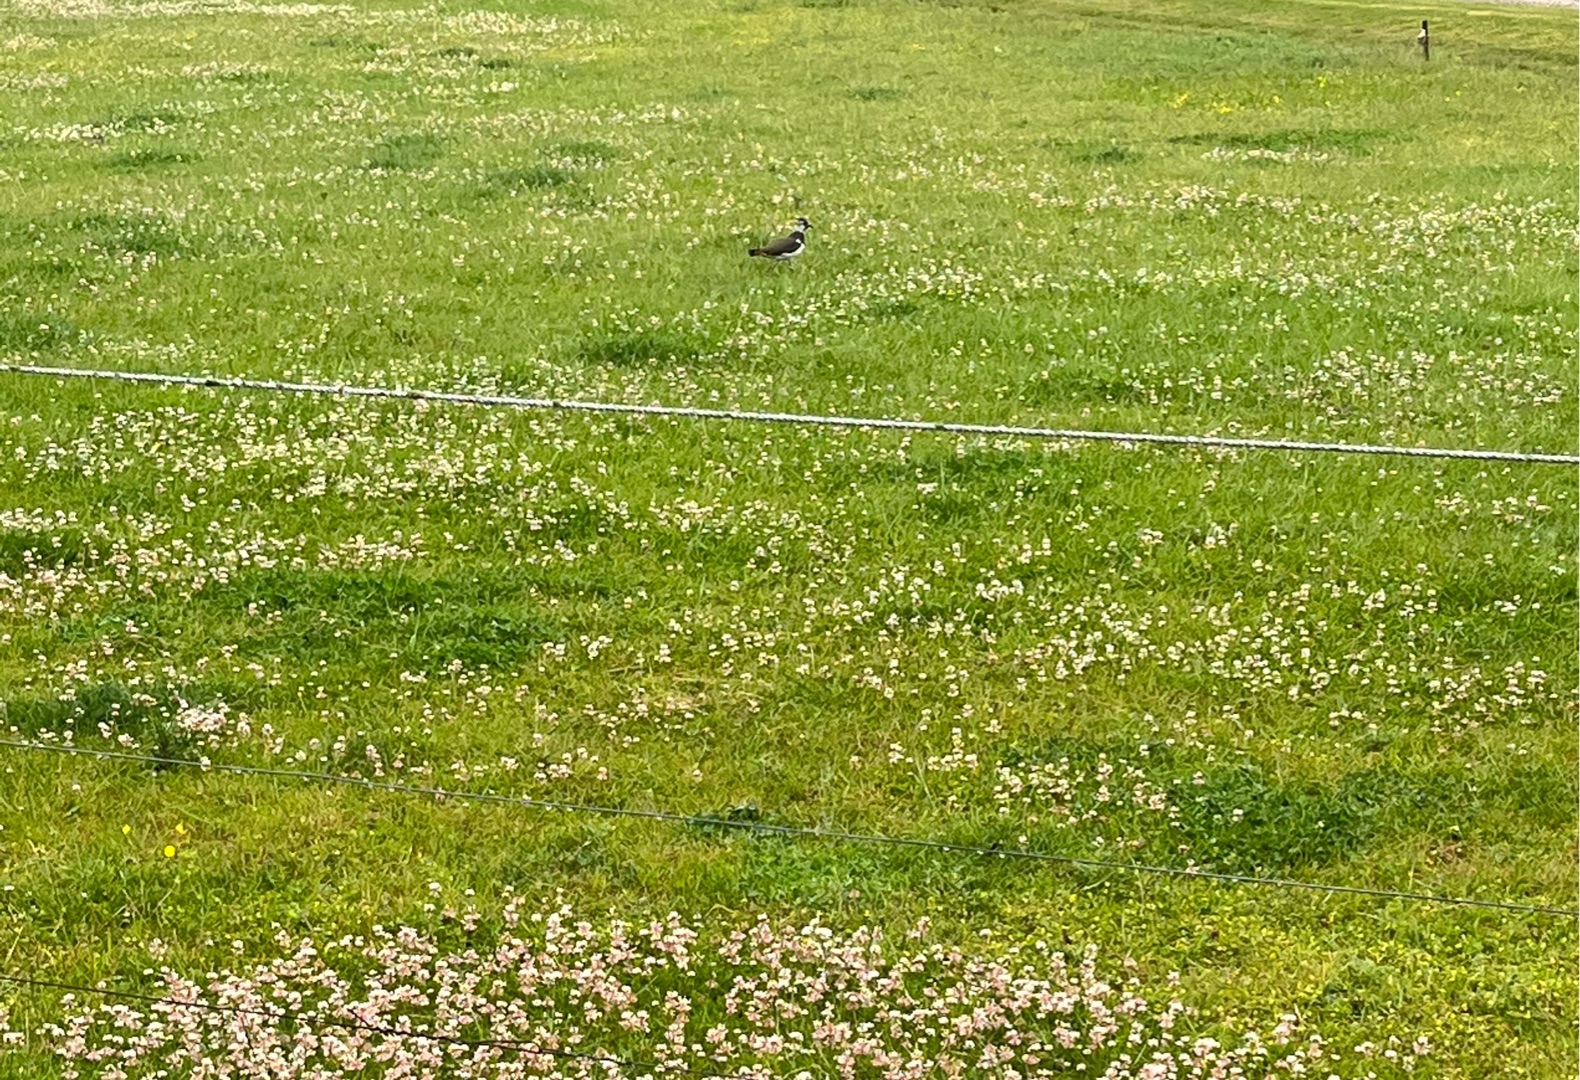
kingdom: Animalia
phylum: Chordata
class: Aves
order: Charadriiformes
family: Charadriidae
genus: Vanellus
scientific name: Vanellus vanellus
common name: Vibe
